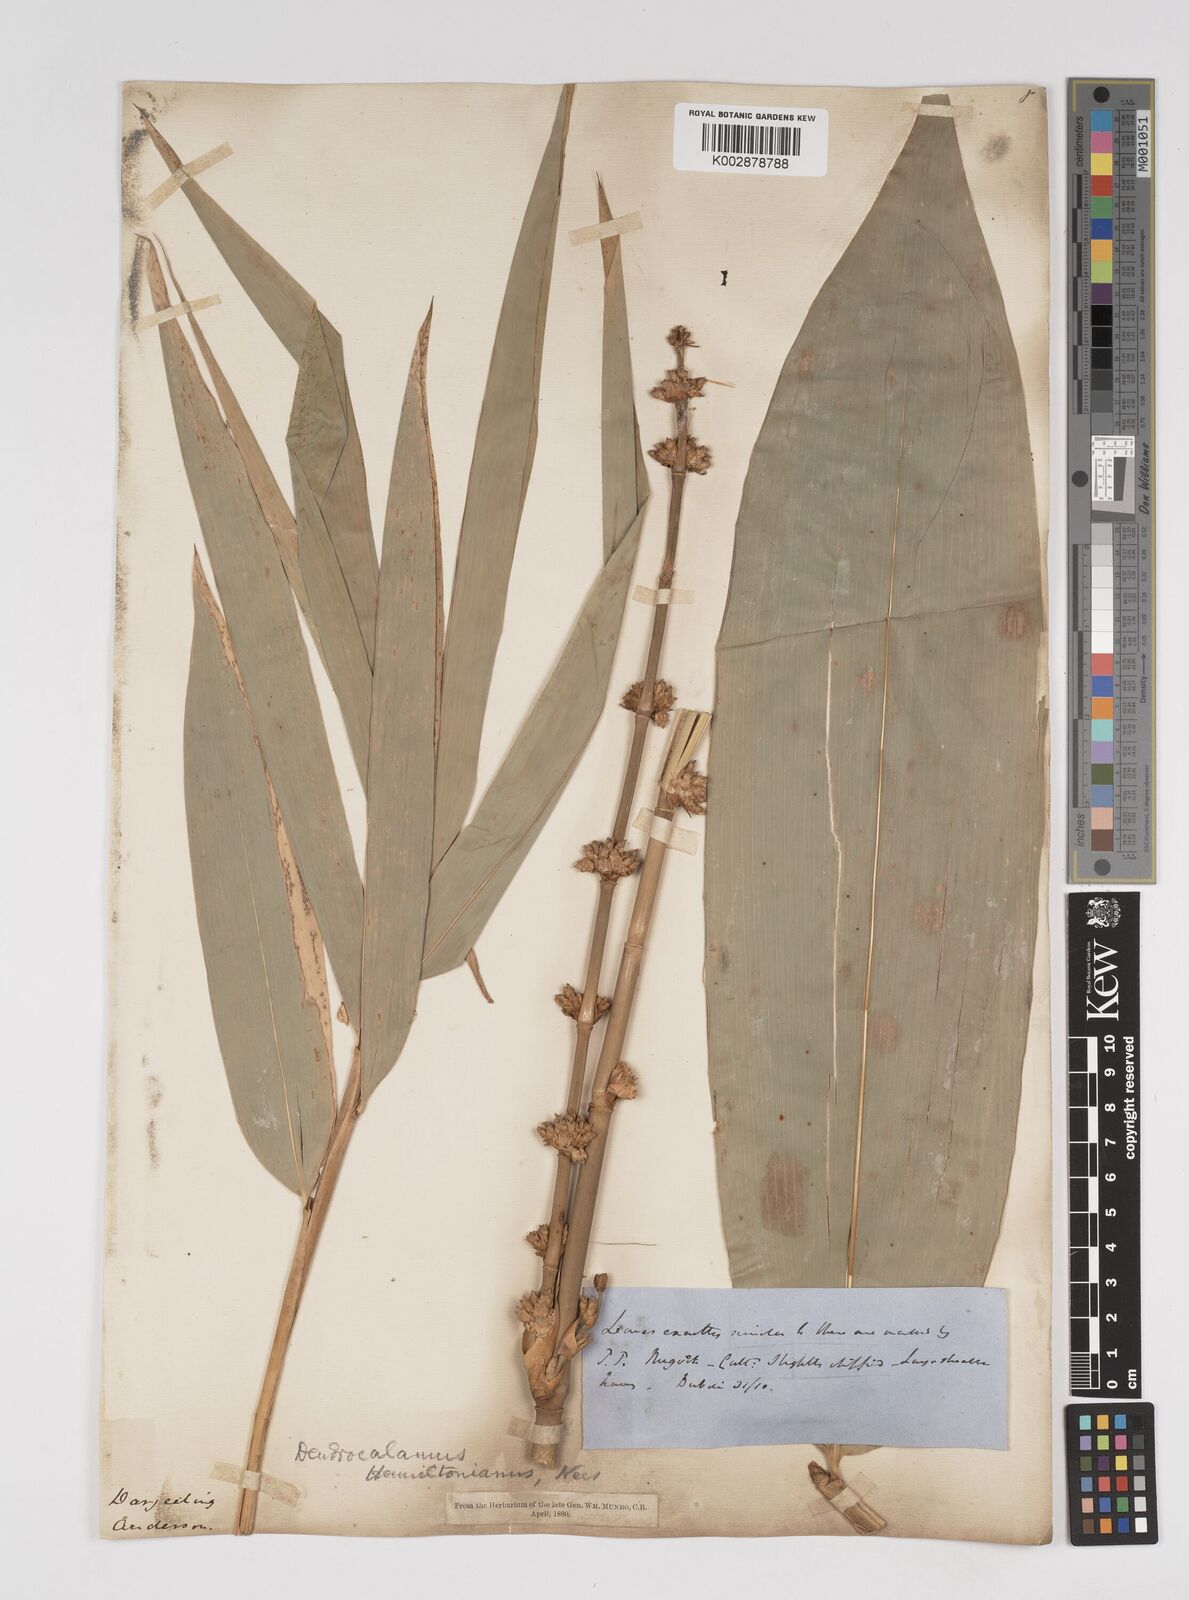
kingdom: Plantae
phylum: Tracheophyta
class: Liliopsida
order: Poales
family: Poaceae
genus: Dendrocalamus
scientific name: Dendrocalamus hamiltonii
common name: Tama bamboo
